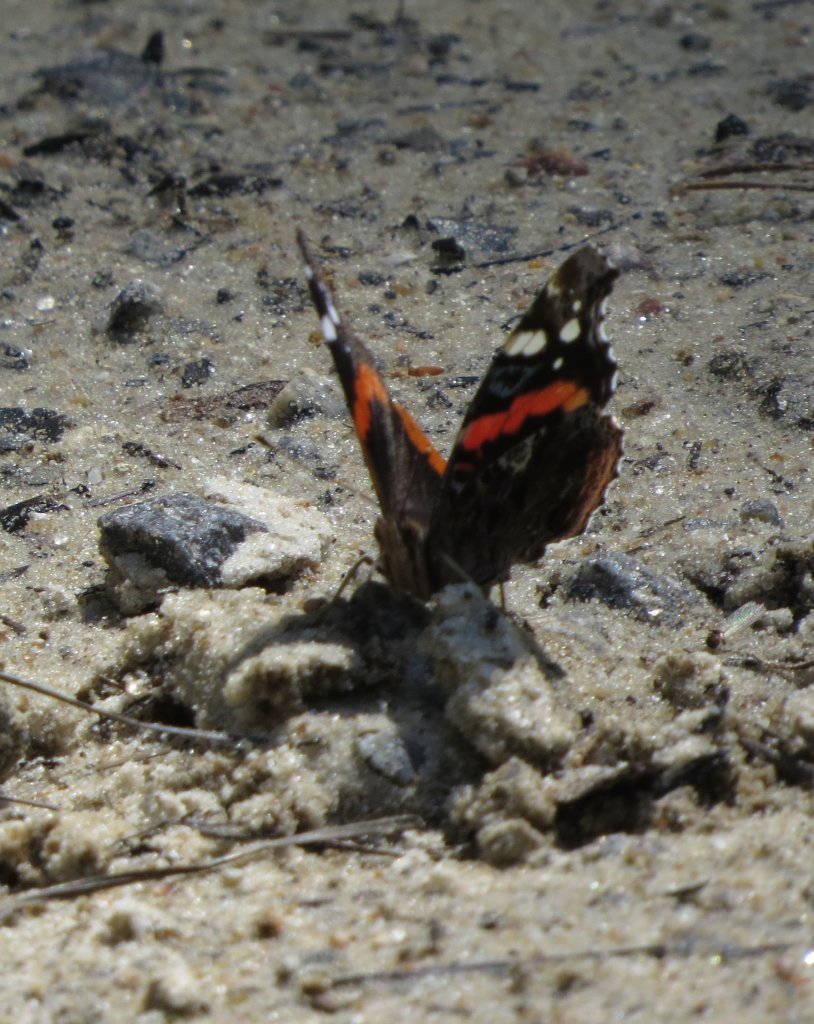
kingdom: Animalia
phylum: Arthropoda
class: Insecta
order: Lepidoptera
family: Nymphalidae
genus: Vanessa
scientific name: Vanessa atalanta
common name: Red Admiral
